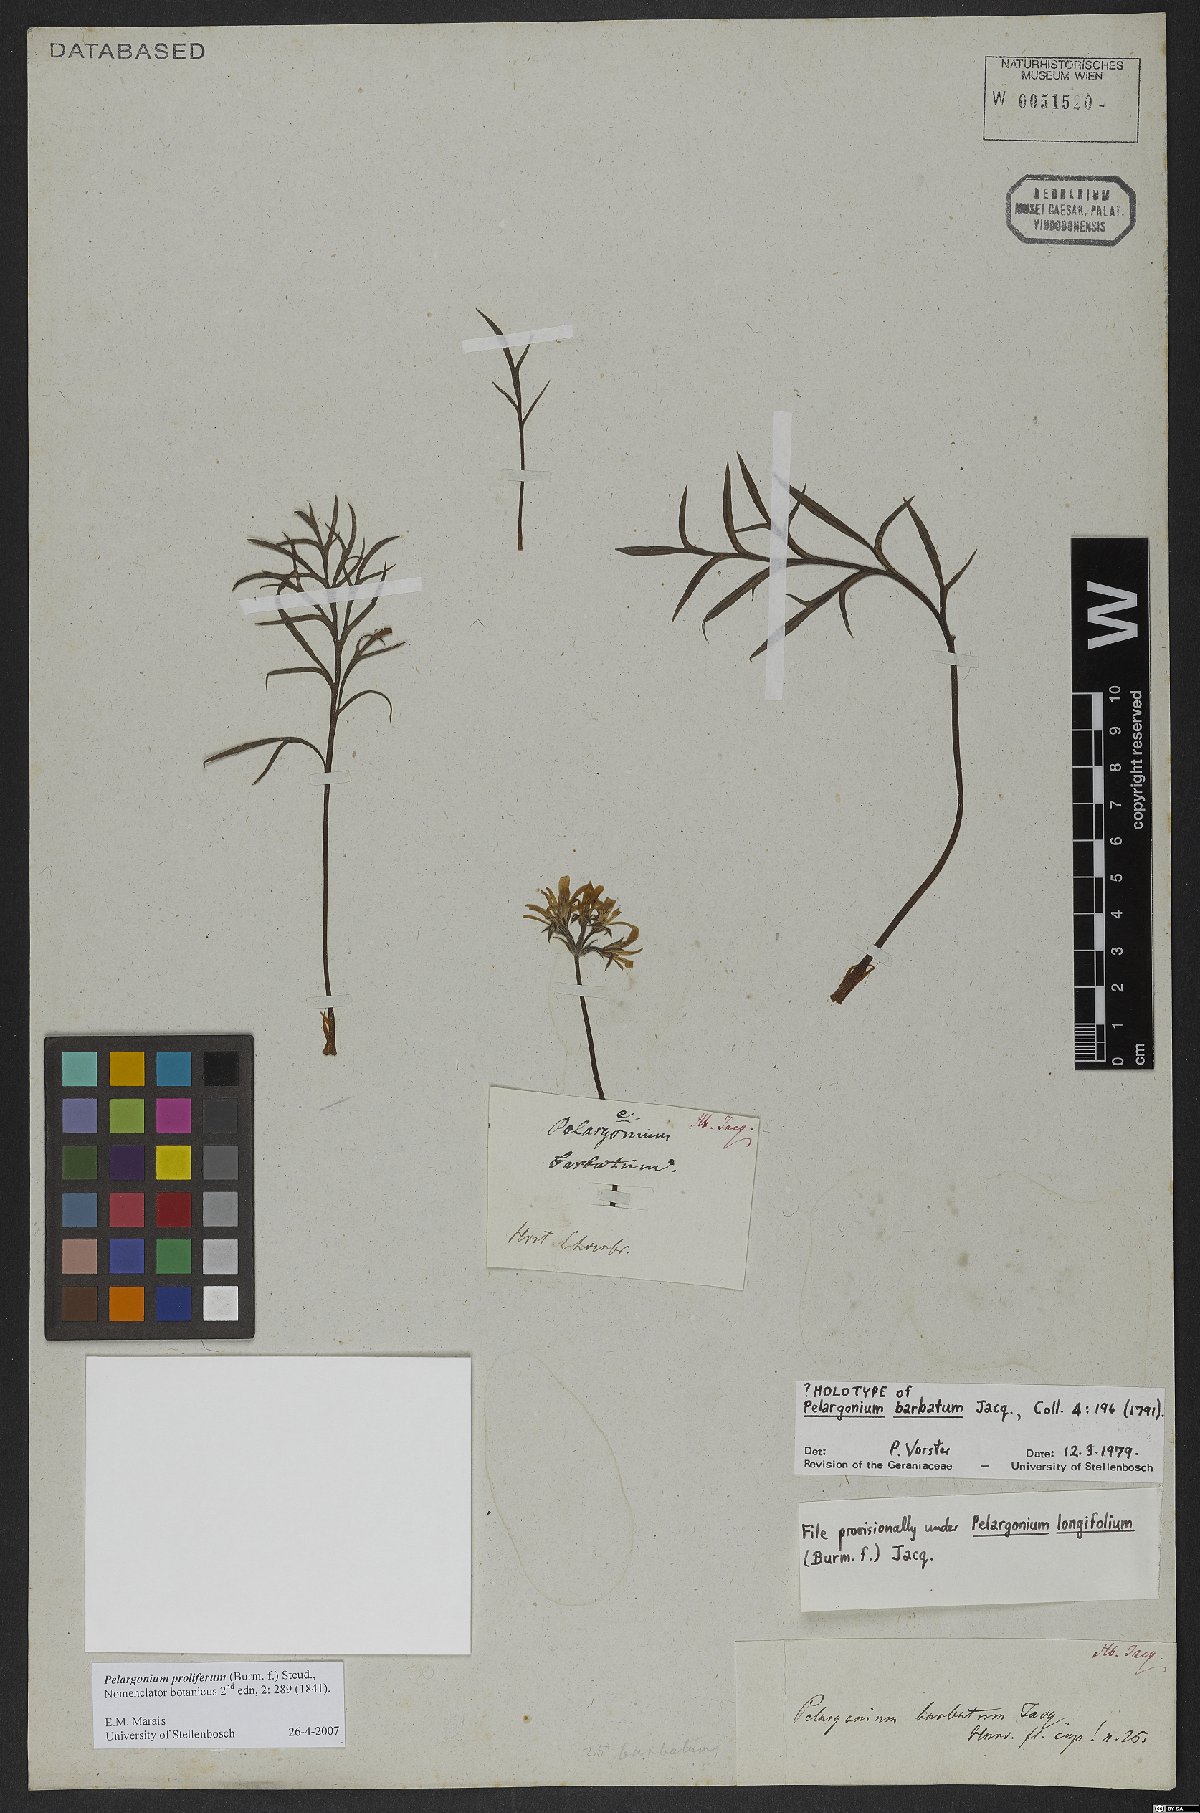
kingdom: Plantae
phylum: Tracheophyta
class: Magnoliopsida
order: Geraniales
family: Geraniaceae
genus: Pelargonium
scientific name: Pelargonium proliferum
